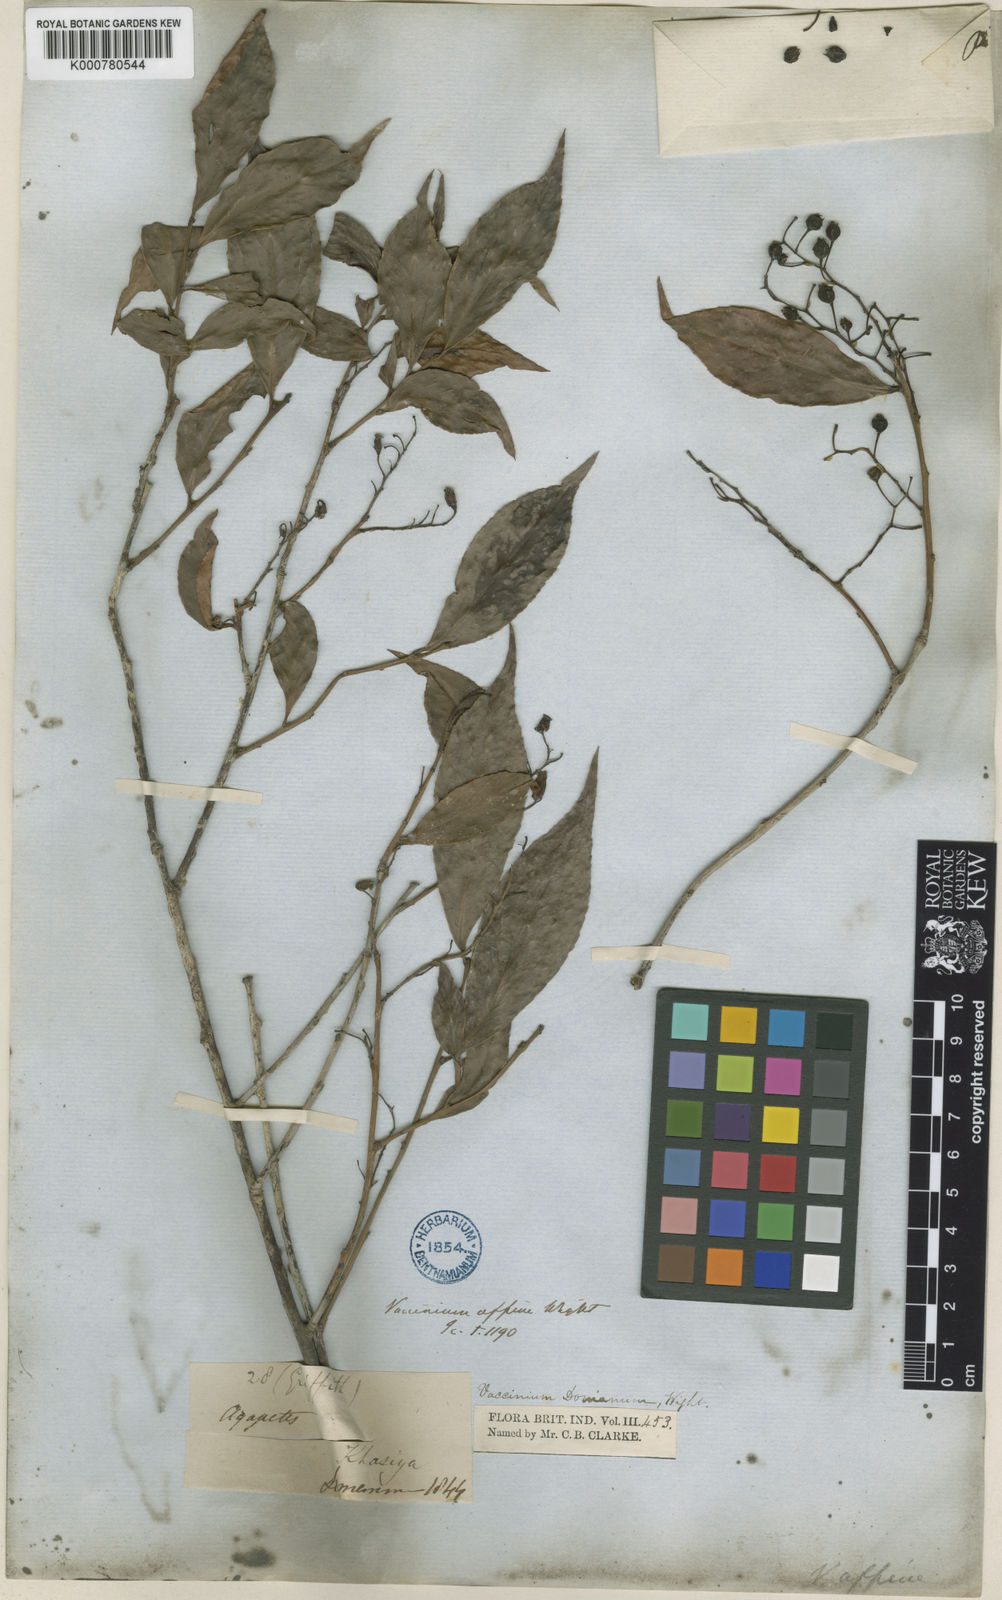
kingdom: Plantae
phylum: Tracheophyta
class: Magnoliopsida
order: Ericales
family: Ericaceae
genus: Vaccinium
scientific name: Vaccinium
